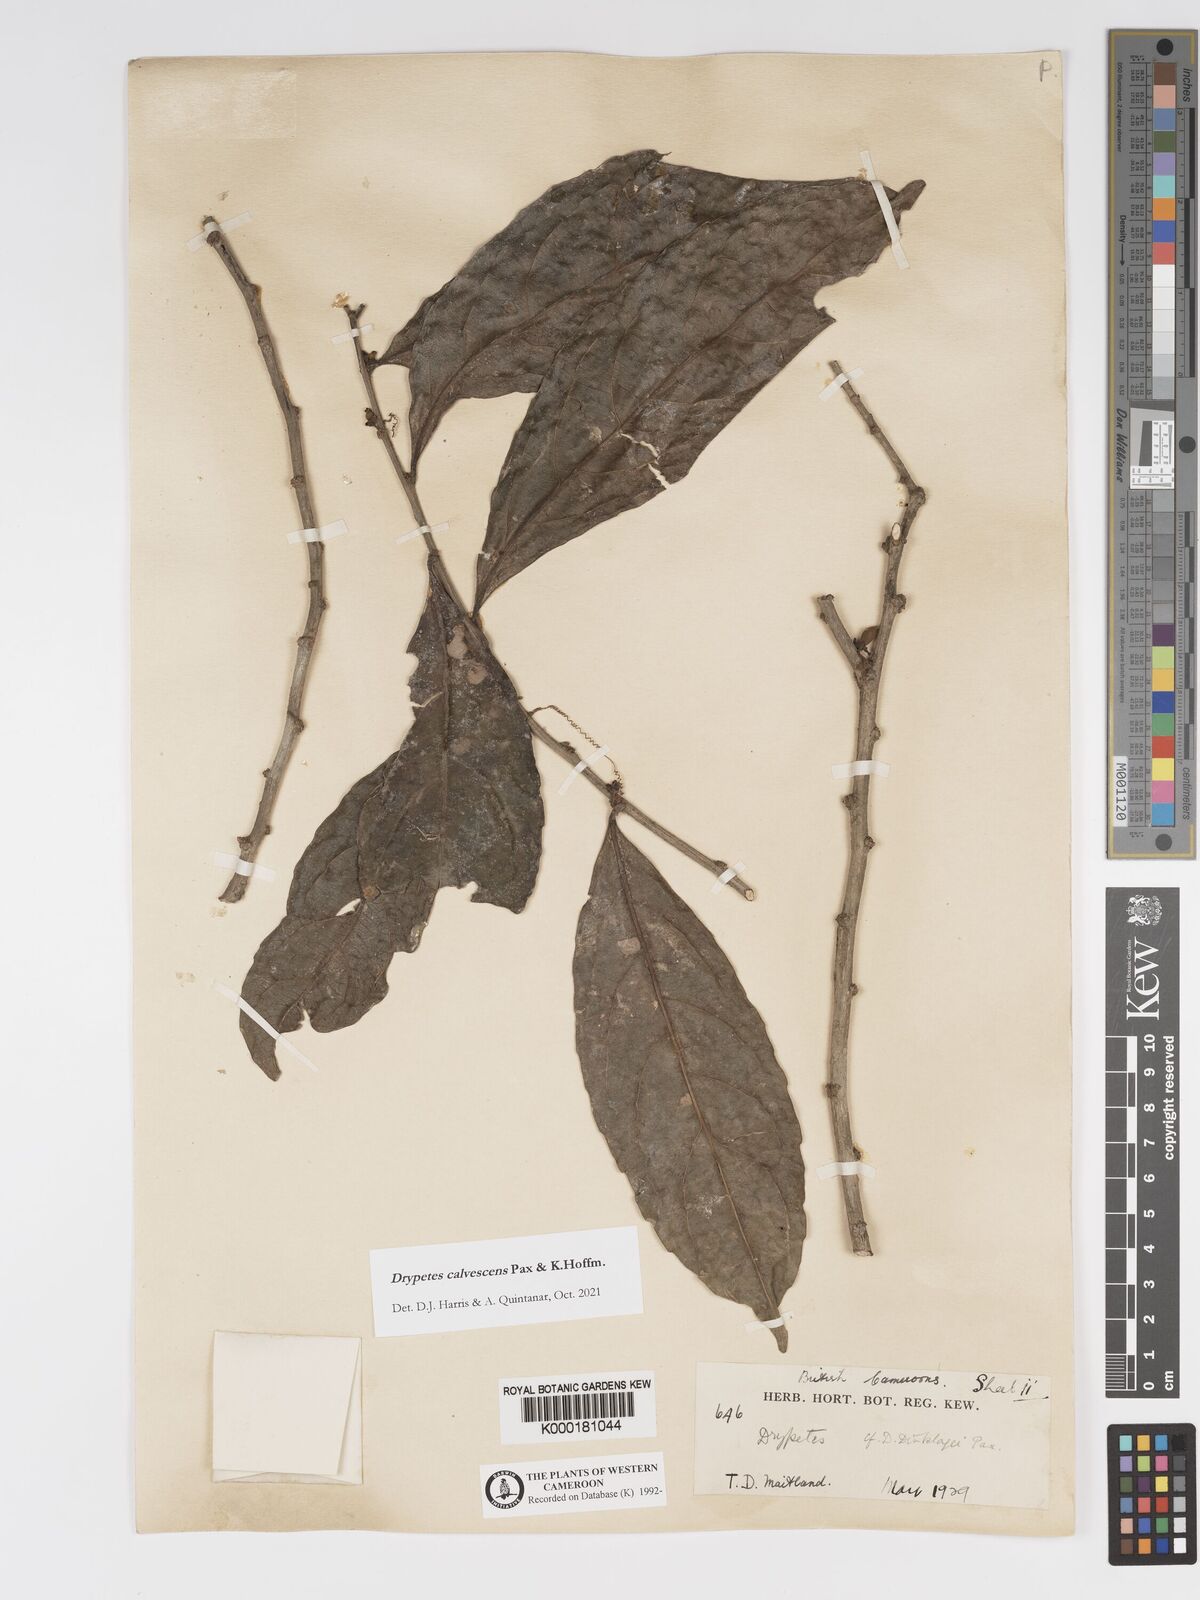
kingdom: Plantae
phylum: Tracheophyta
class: Magnoliopsida
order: Malpighiales
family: Putranjivaceae
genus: Drypetes
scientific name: Drypetes
